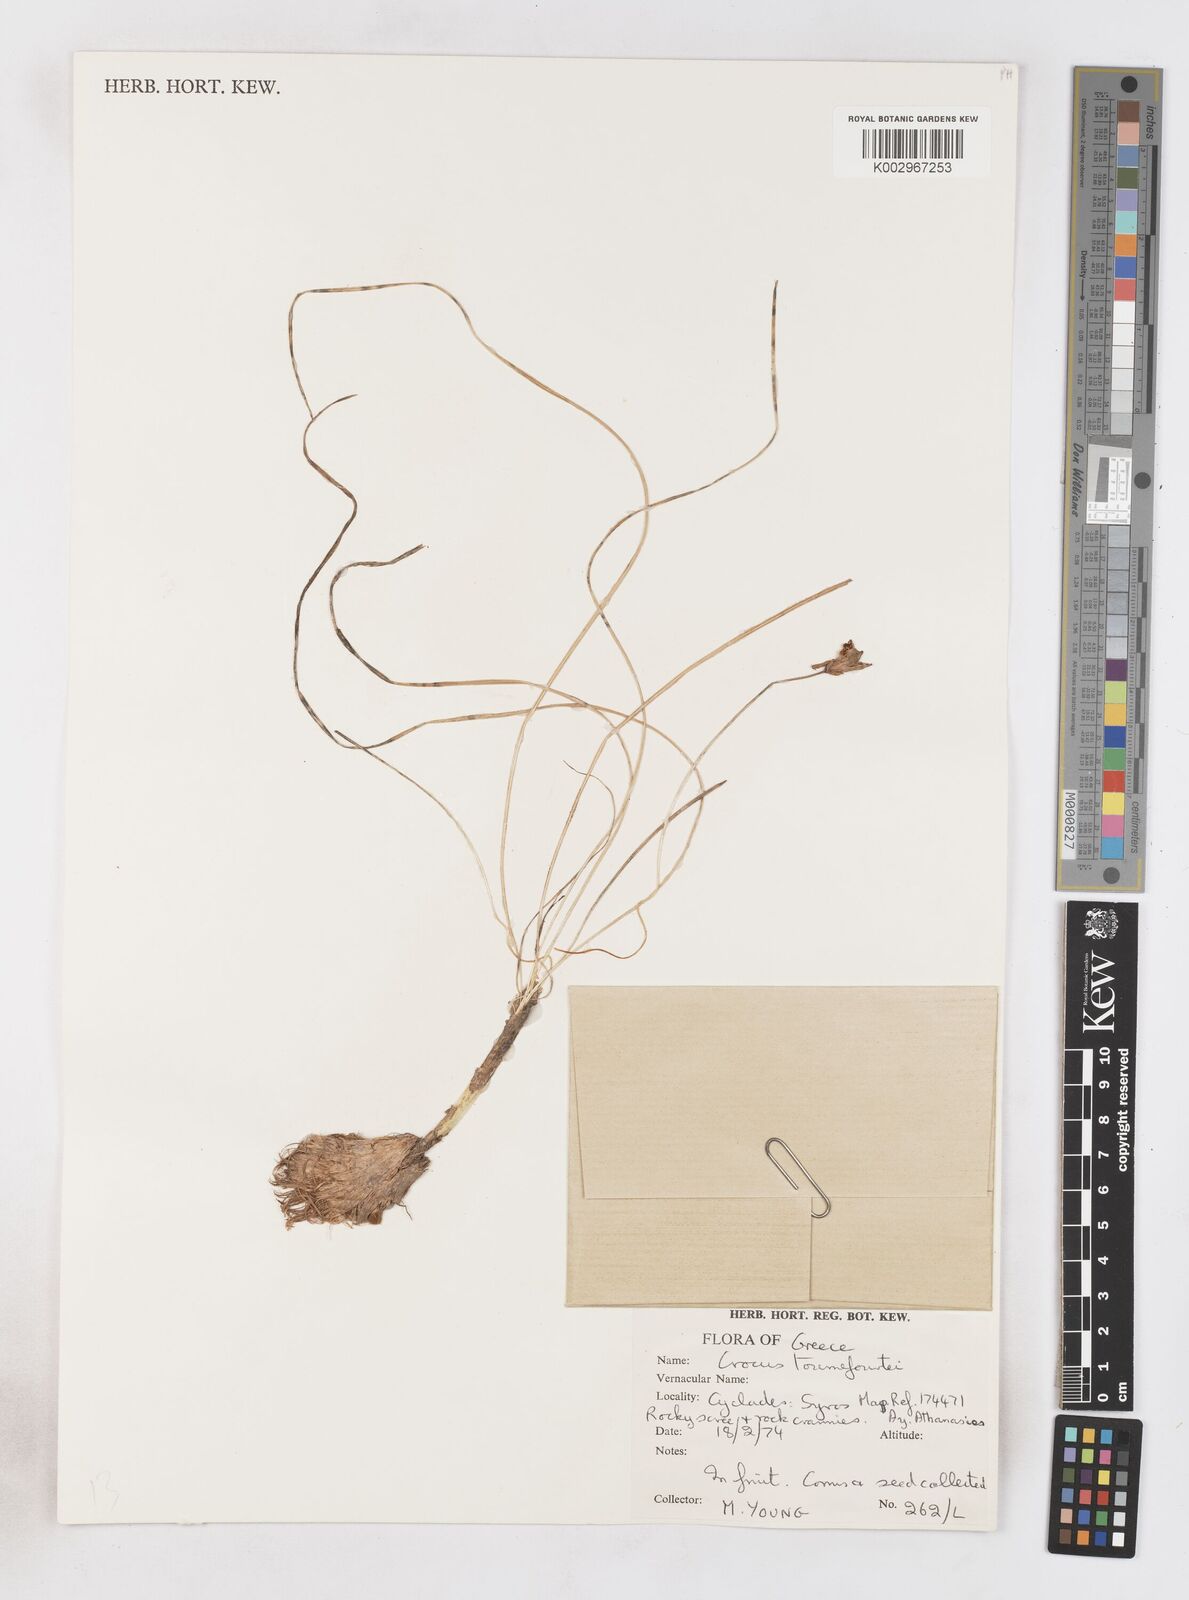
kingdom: Plantae
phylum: Tracheophyta
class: Liliopsida
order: Asparagales
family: Iridaceae
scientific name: Iridaceae
